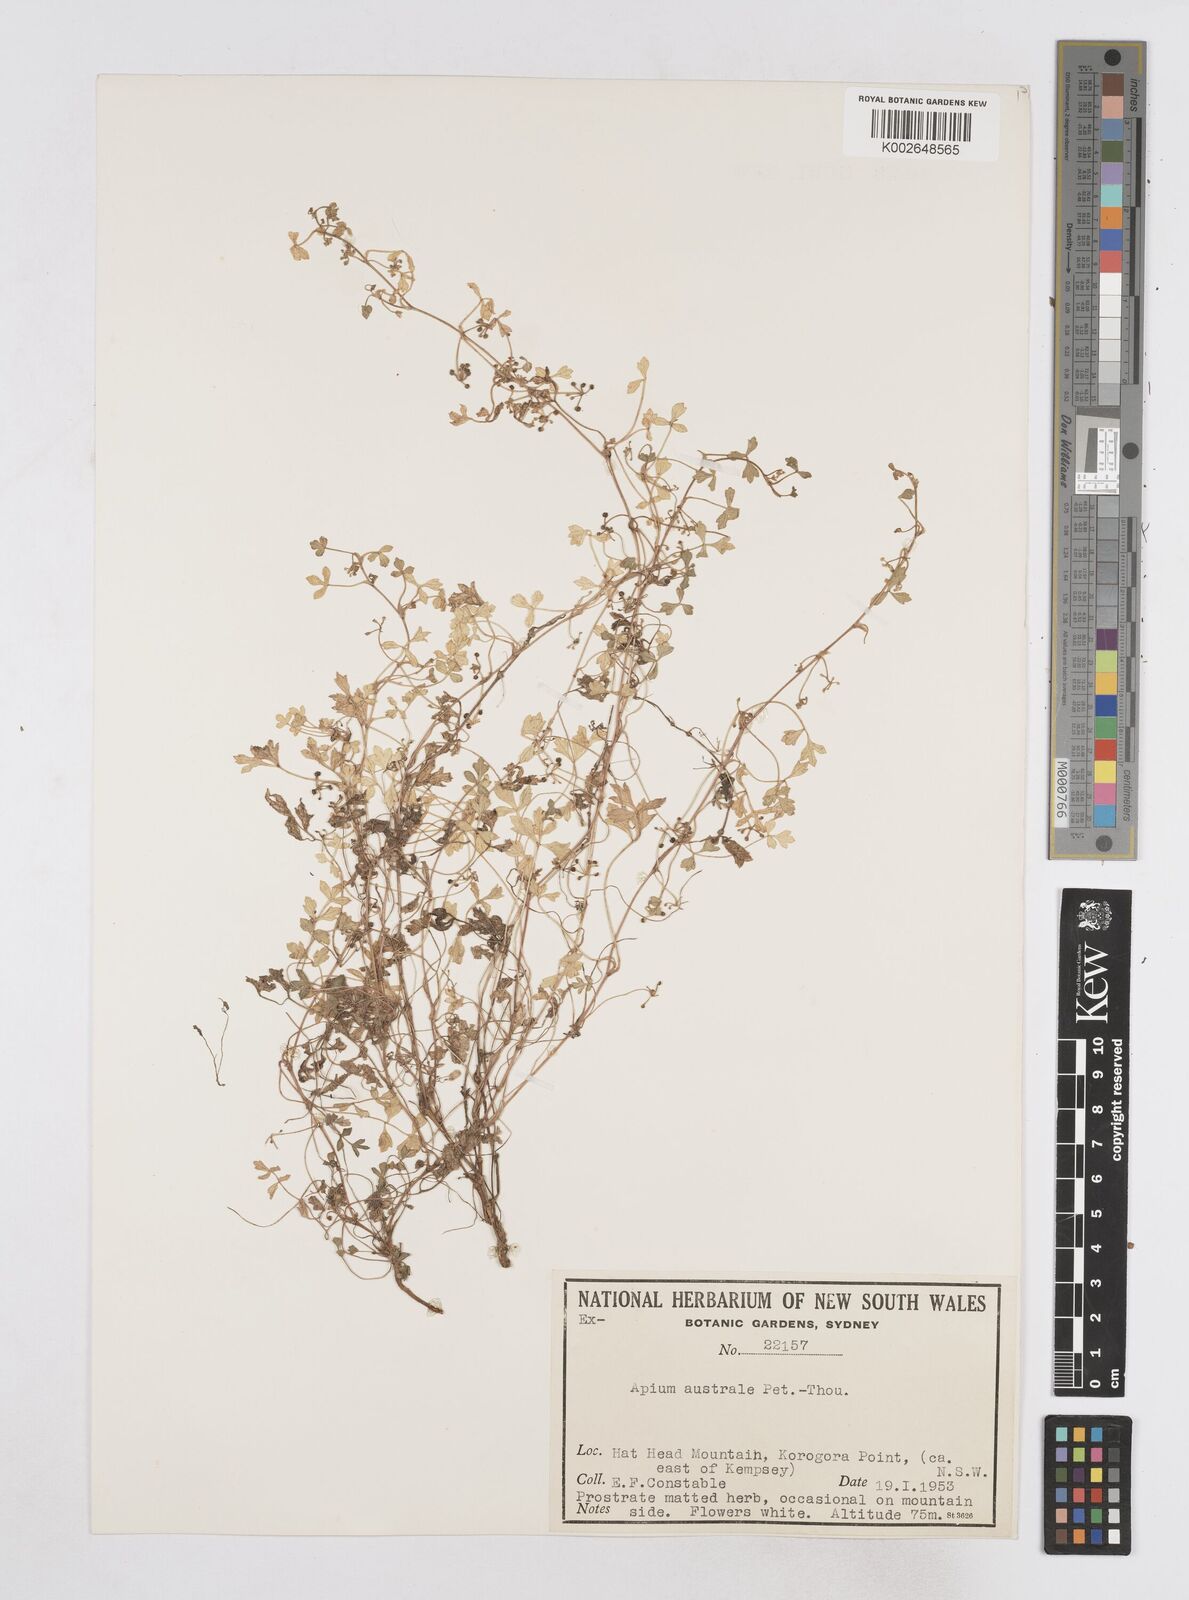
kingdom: Plantae
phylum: Tracheophyta
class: Magnoliopsida
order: Apiales
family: Apiaceae
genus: Apium
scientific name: Apium prostratum
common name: Prostrate marshwort
